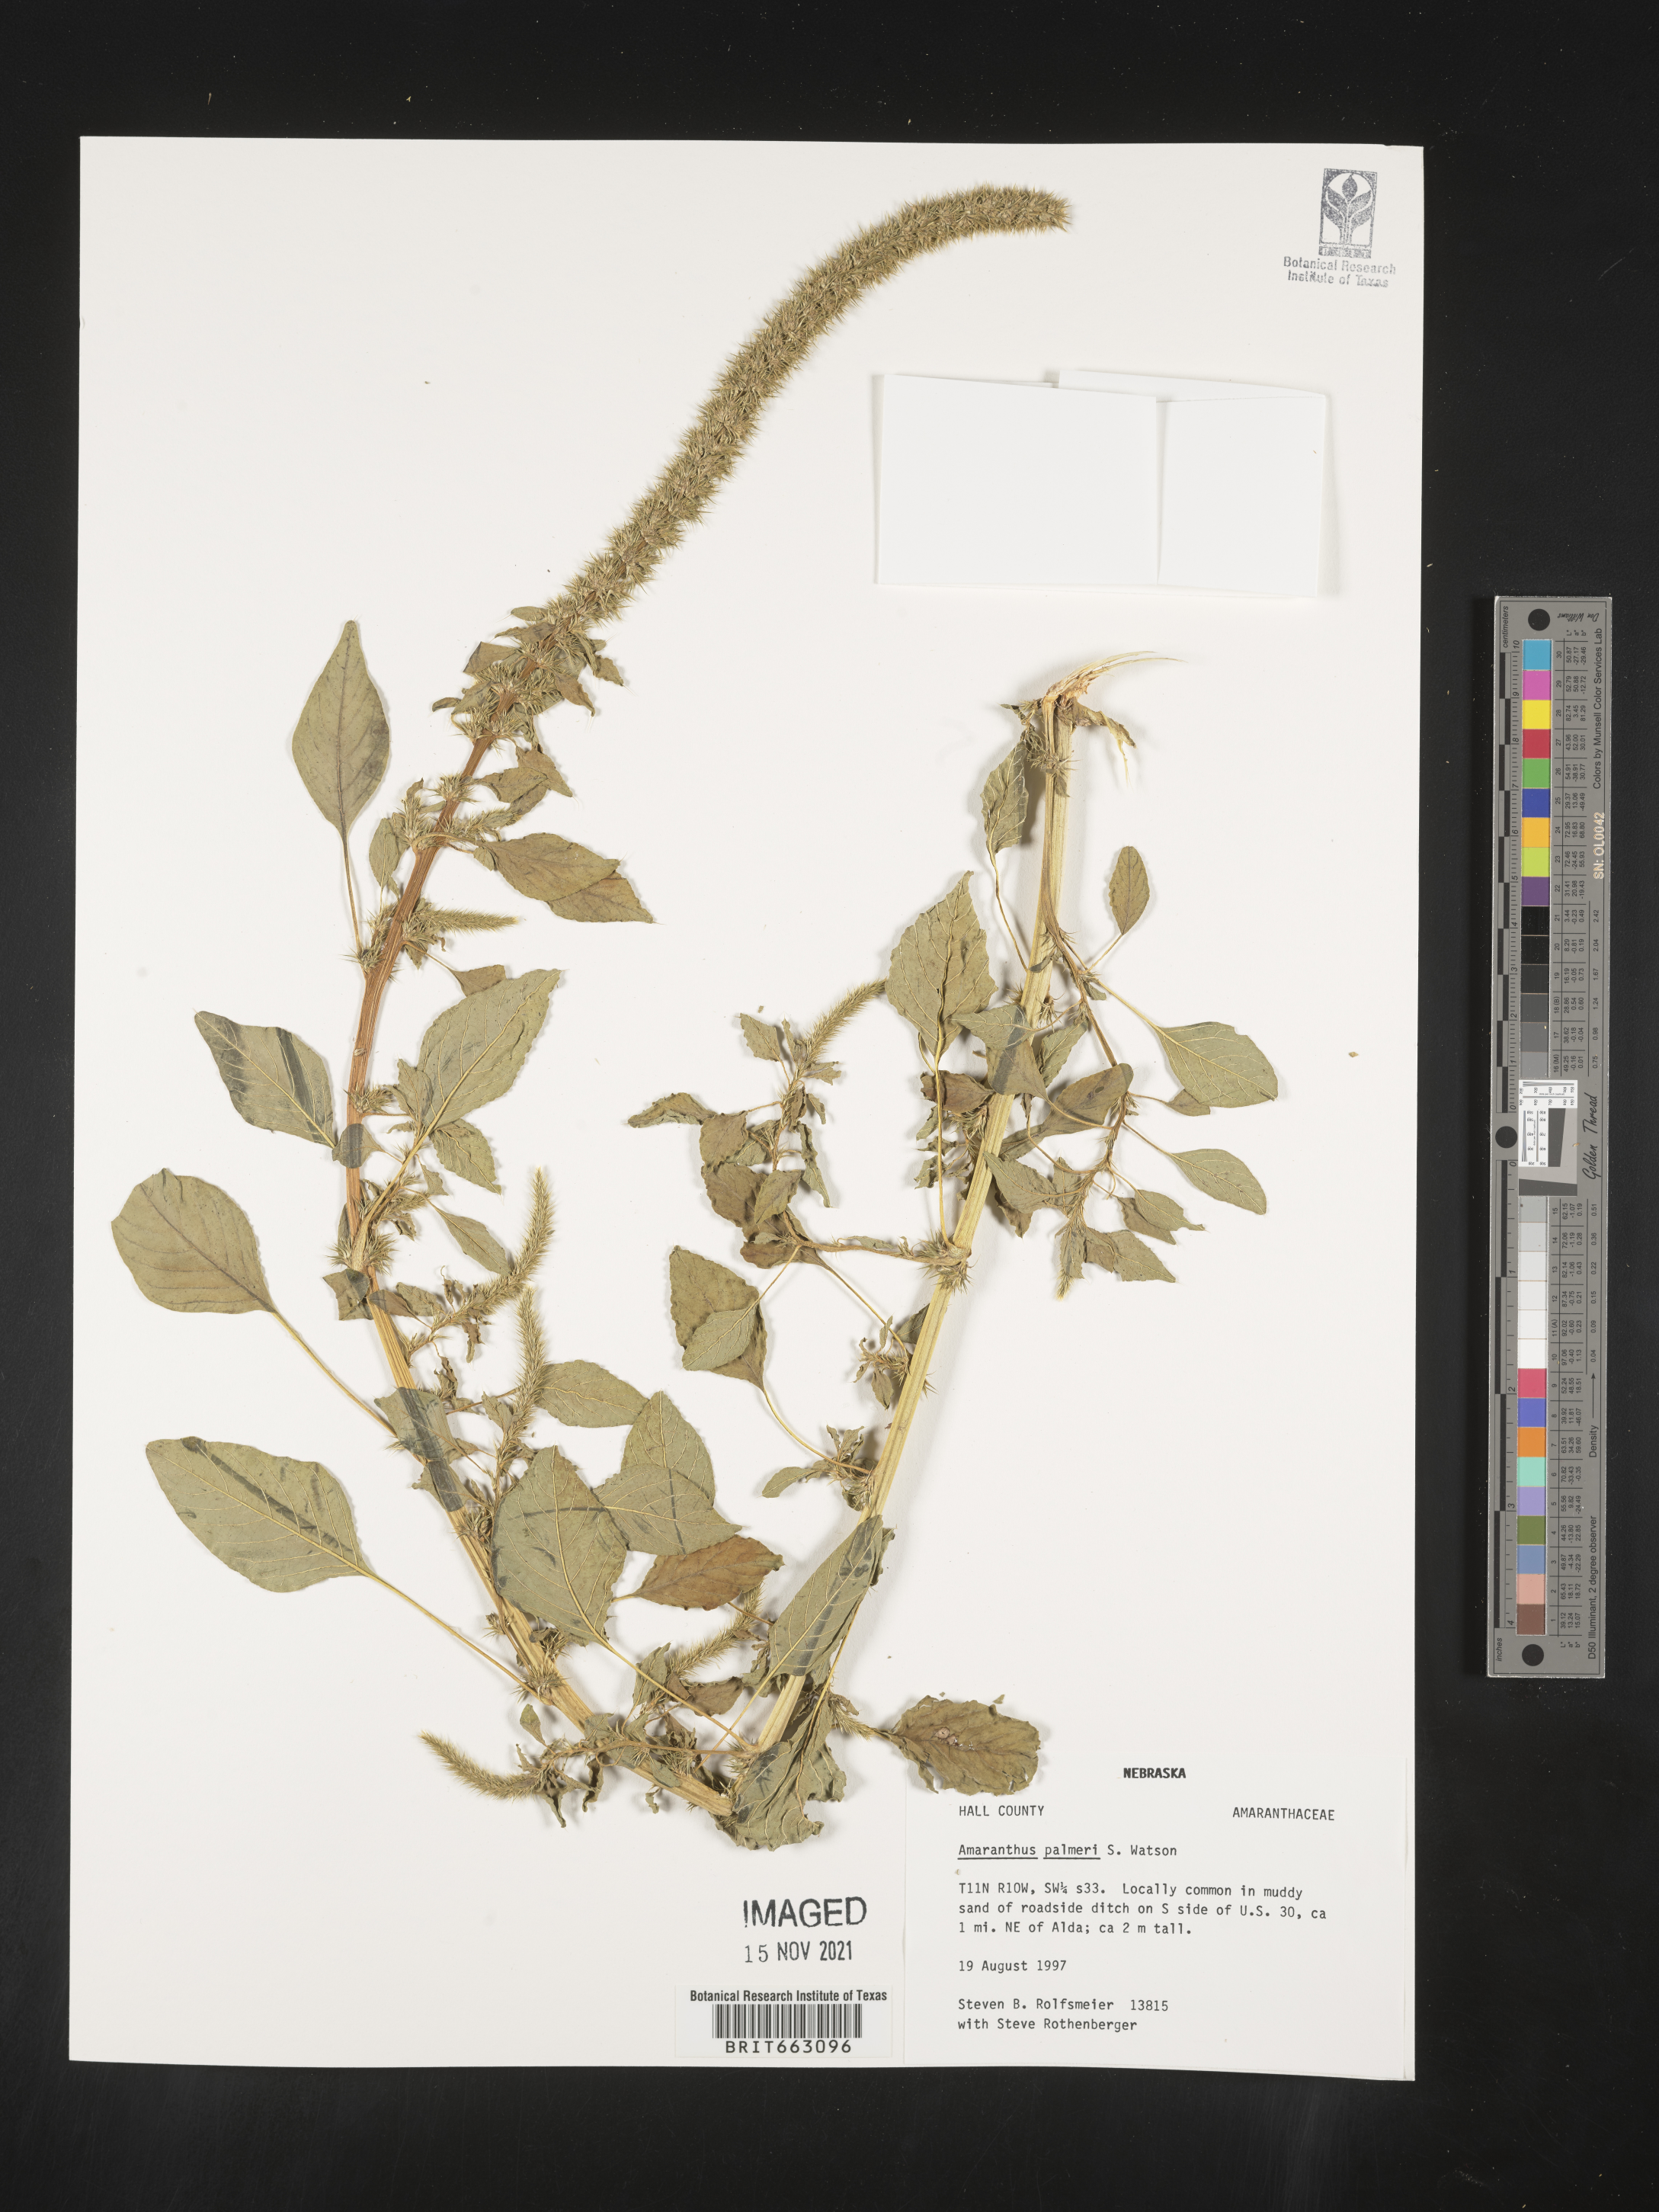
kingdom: Plantae
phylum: Tracheophyta
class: Magnoliopsida
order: Caryophyllales
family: Amaranthaceae
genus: Amaranthus
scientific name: Amaranthus palmeri
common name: Dioecious amaranth
